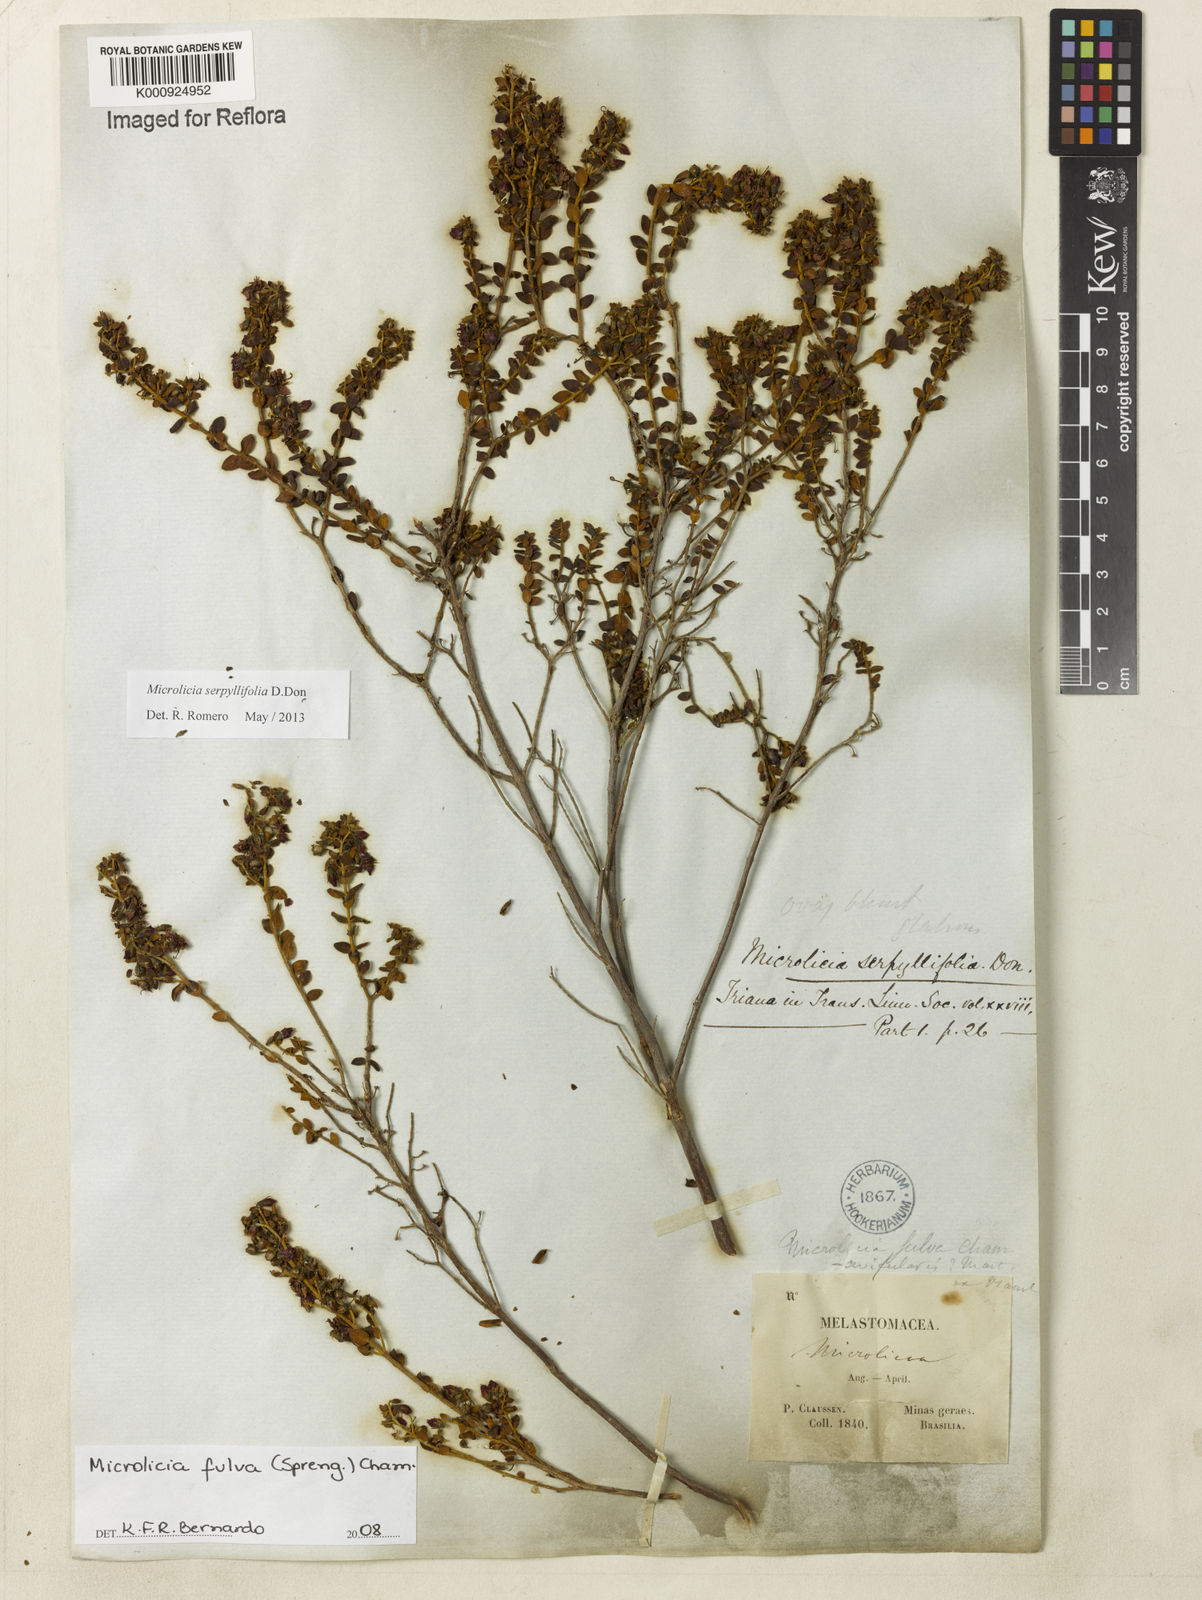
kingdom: Plantae
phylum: Tracheophyta
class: Magnoliopsida
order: Myrtales
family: Melastomataceae
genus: Microlicia
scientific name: Microlicia fulva
